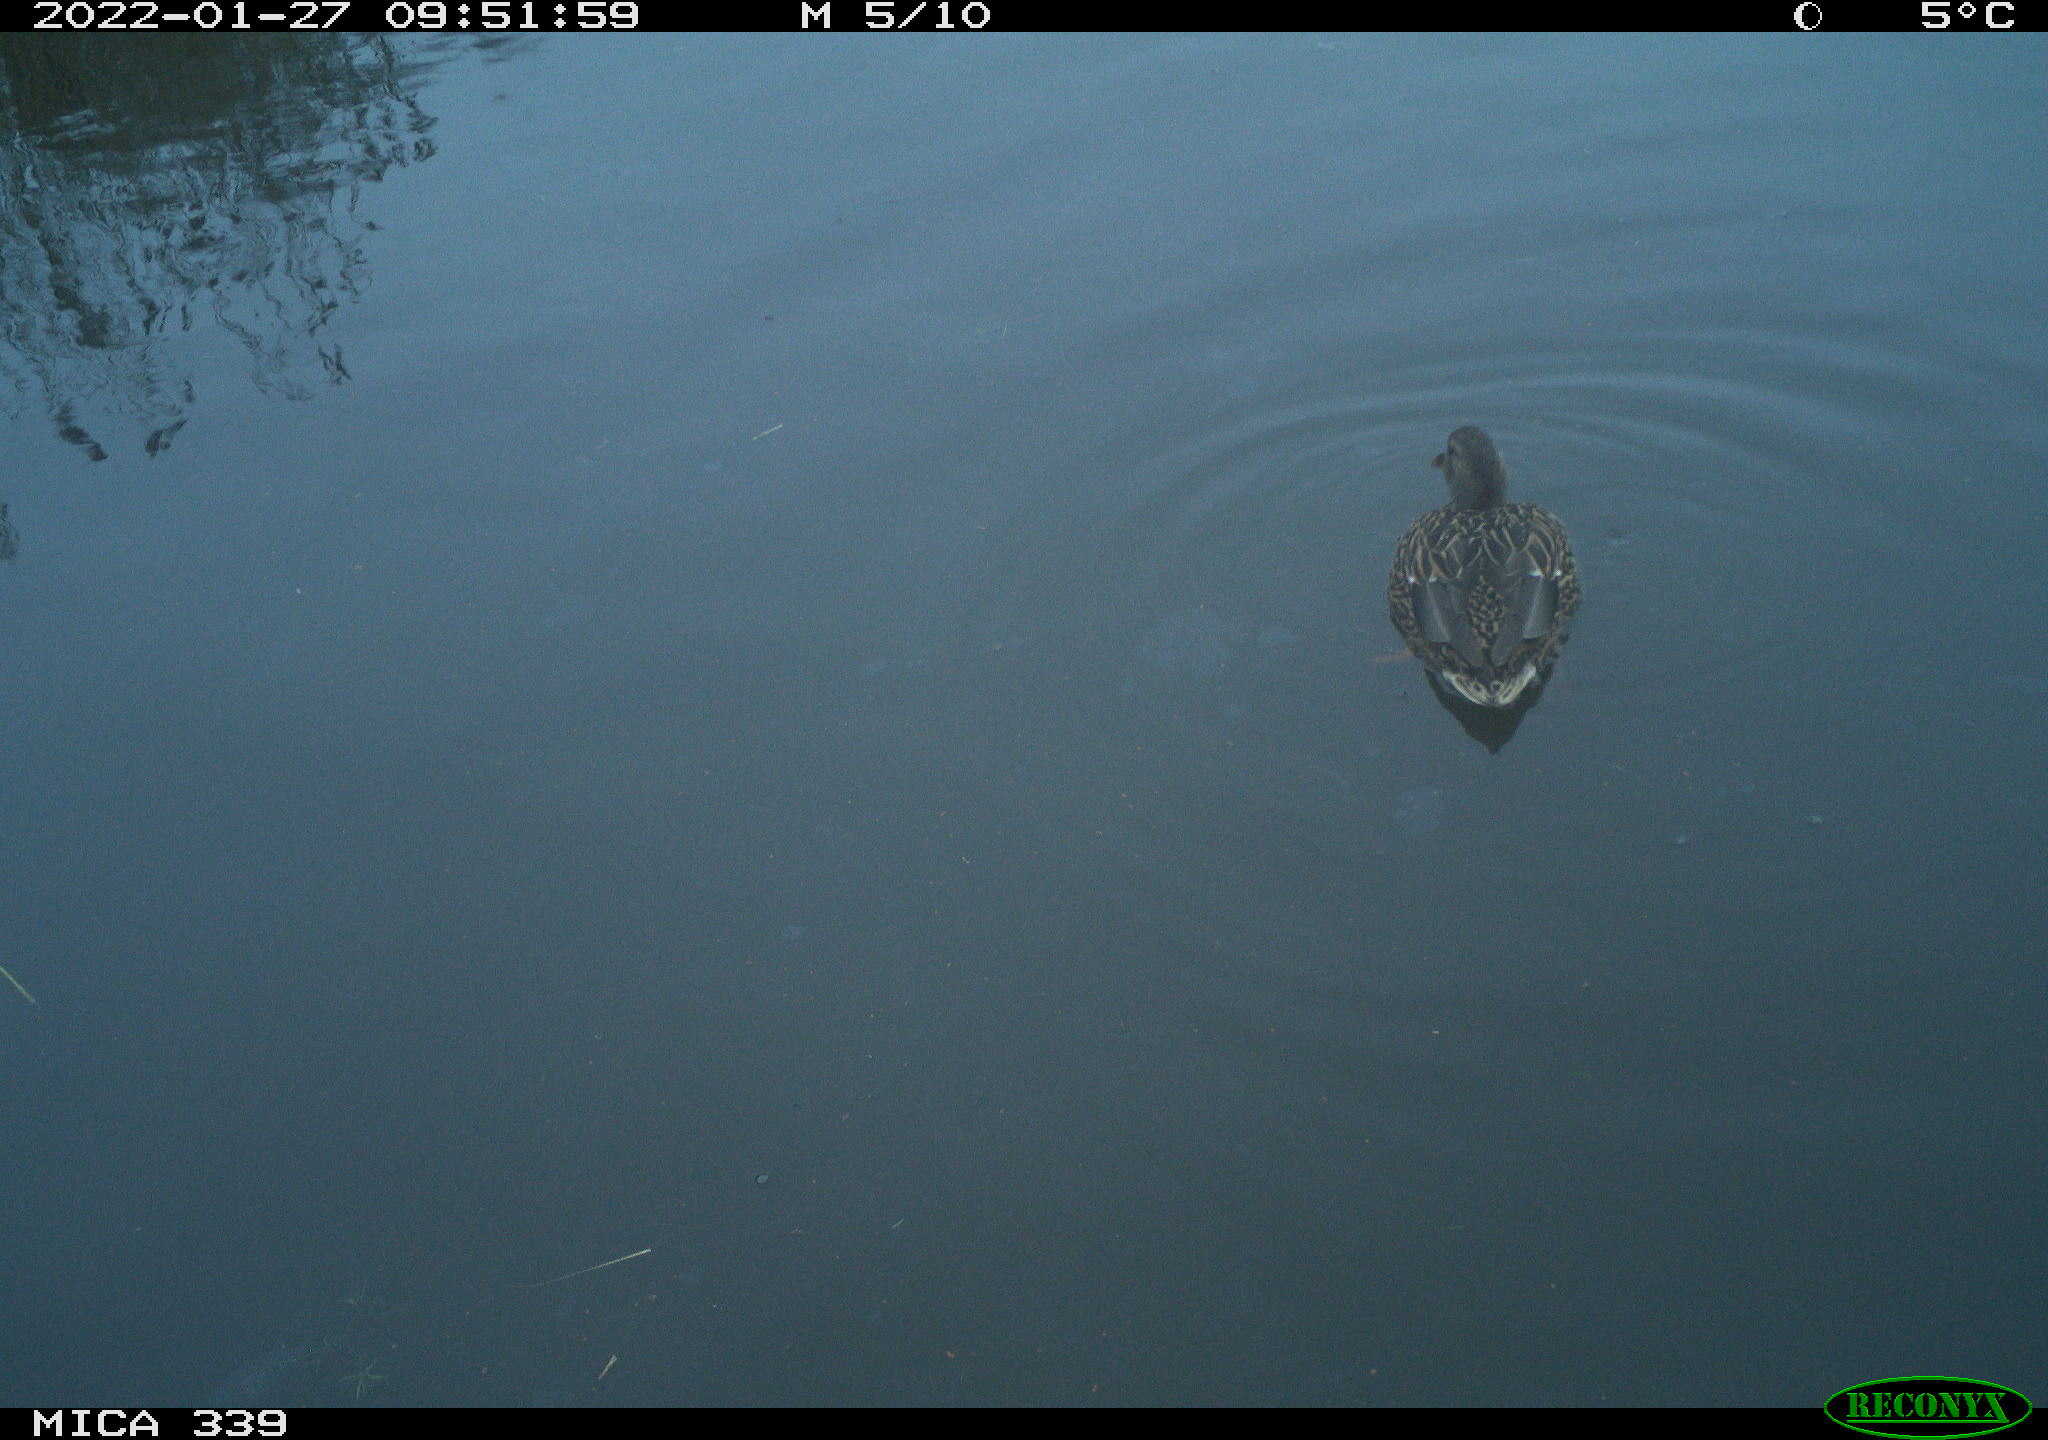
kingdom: Animalia
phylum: Chordata
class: Aves
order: Anseriformes
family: Anatidae
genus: Anas
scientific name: Anas platyrhynchos
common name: Mallard
